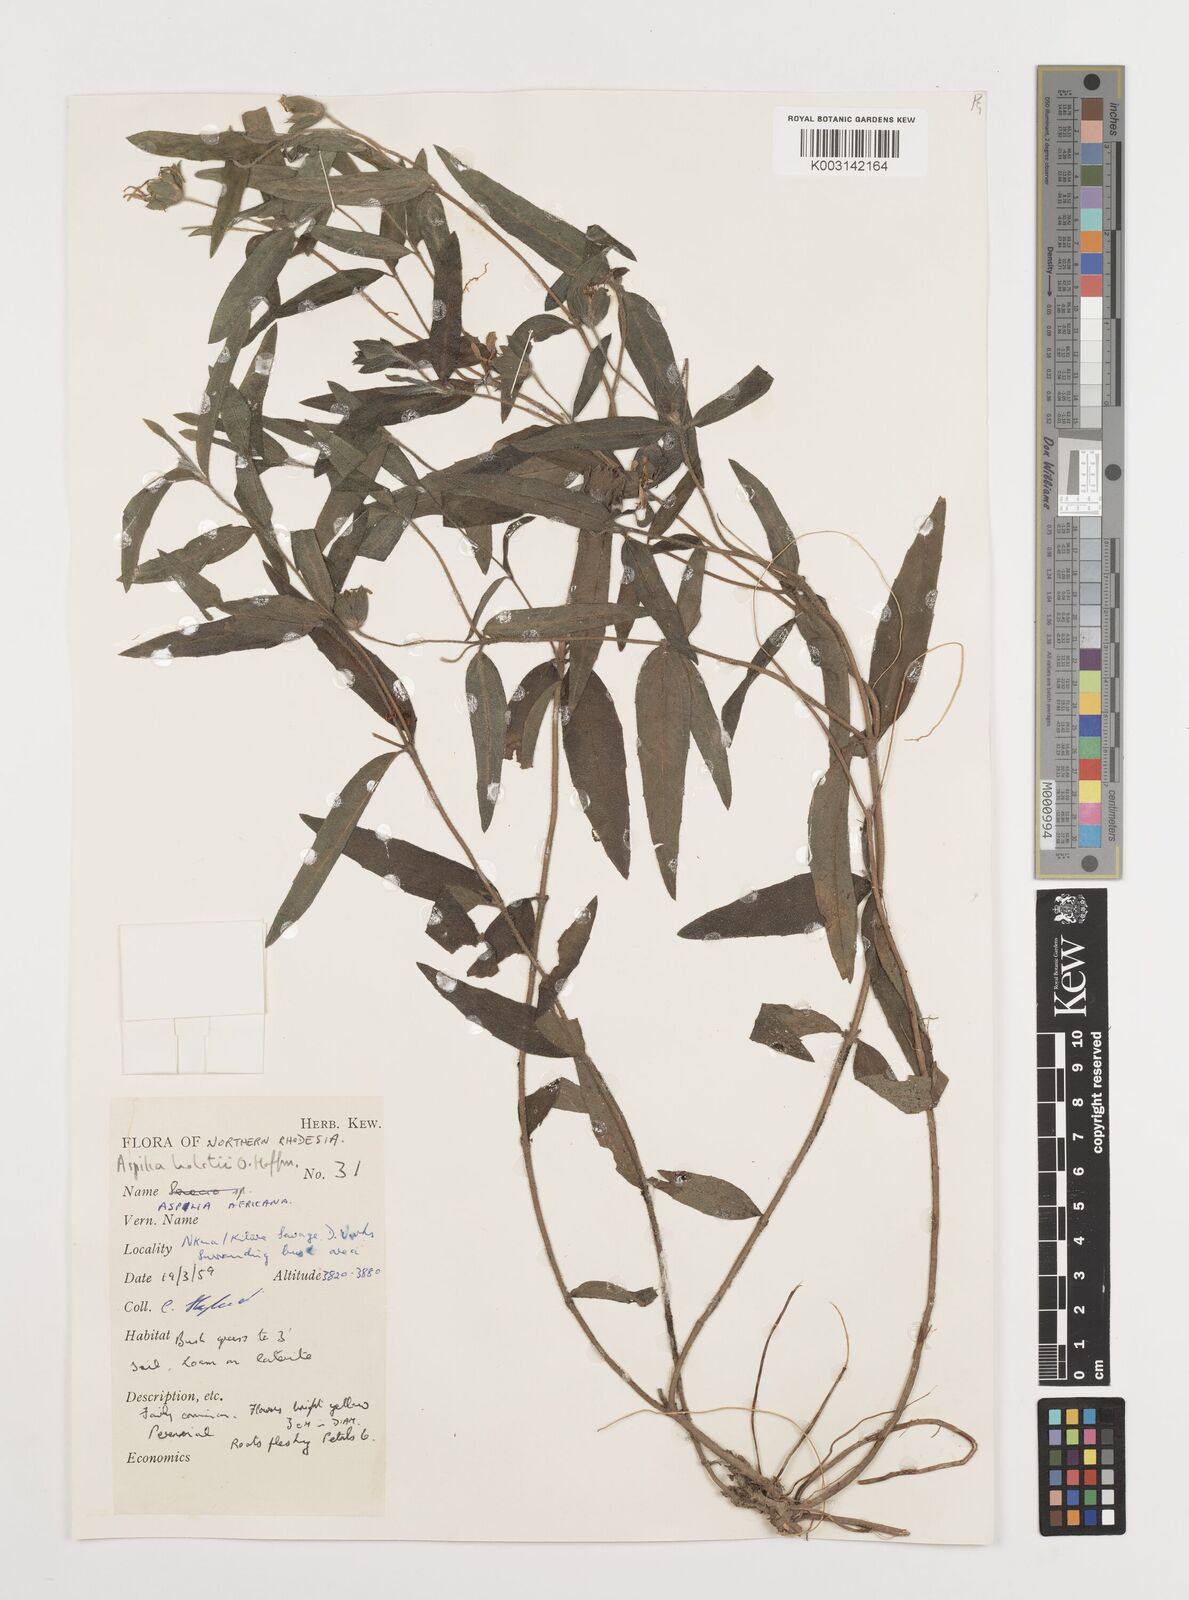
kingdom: Plantae
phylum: Tracheophyta
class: Magnoliopsida
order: Asterales
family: Asteraceae
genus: Aspilia
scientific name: Aspilia natalensis
